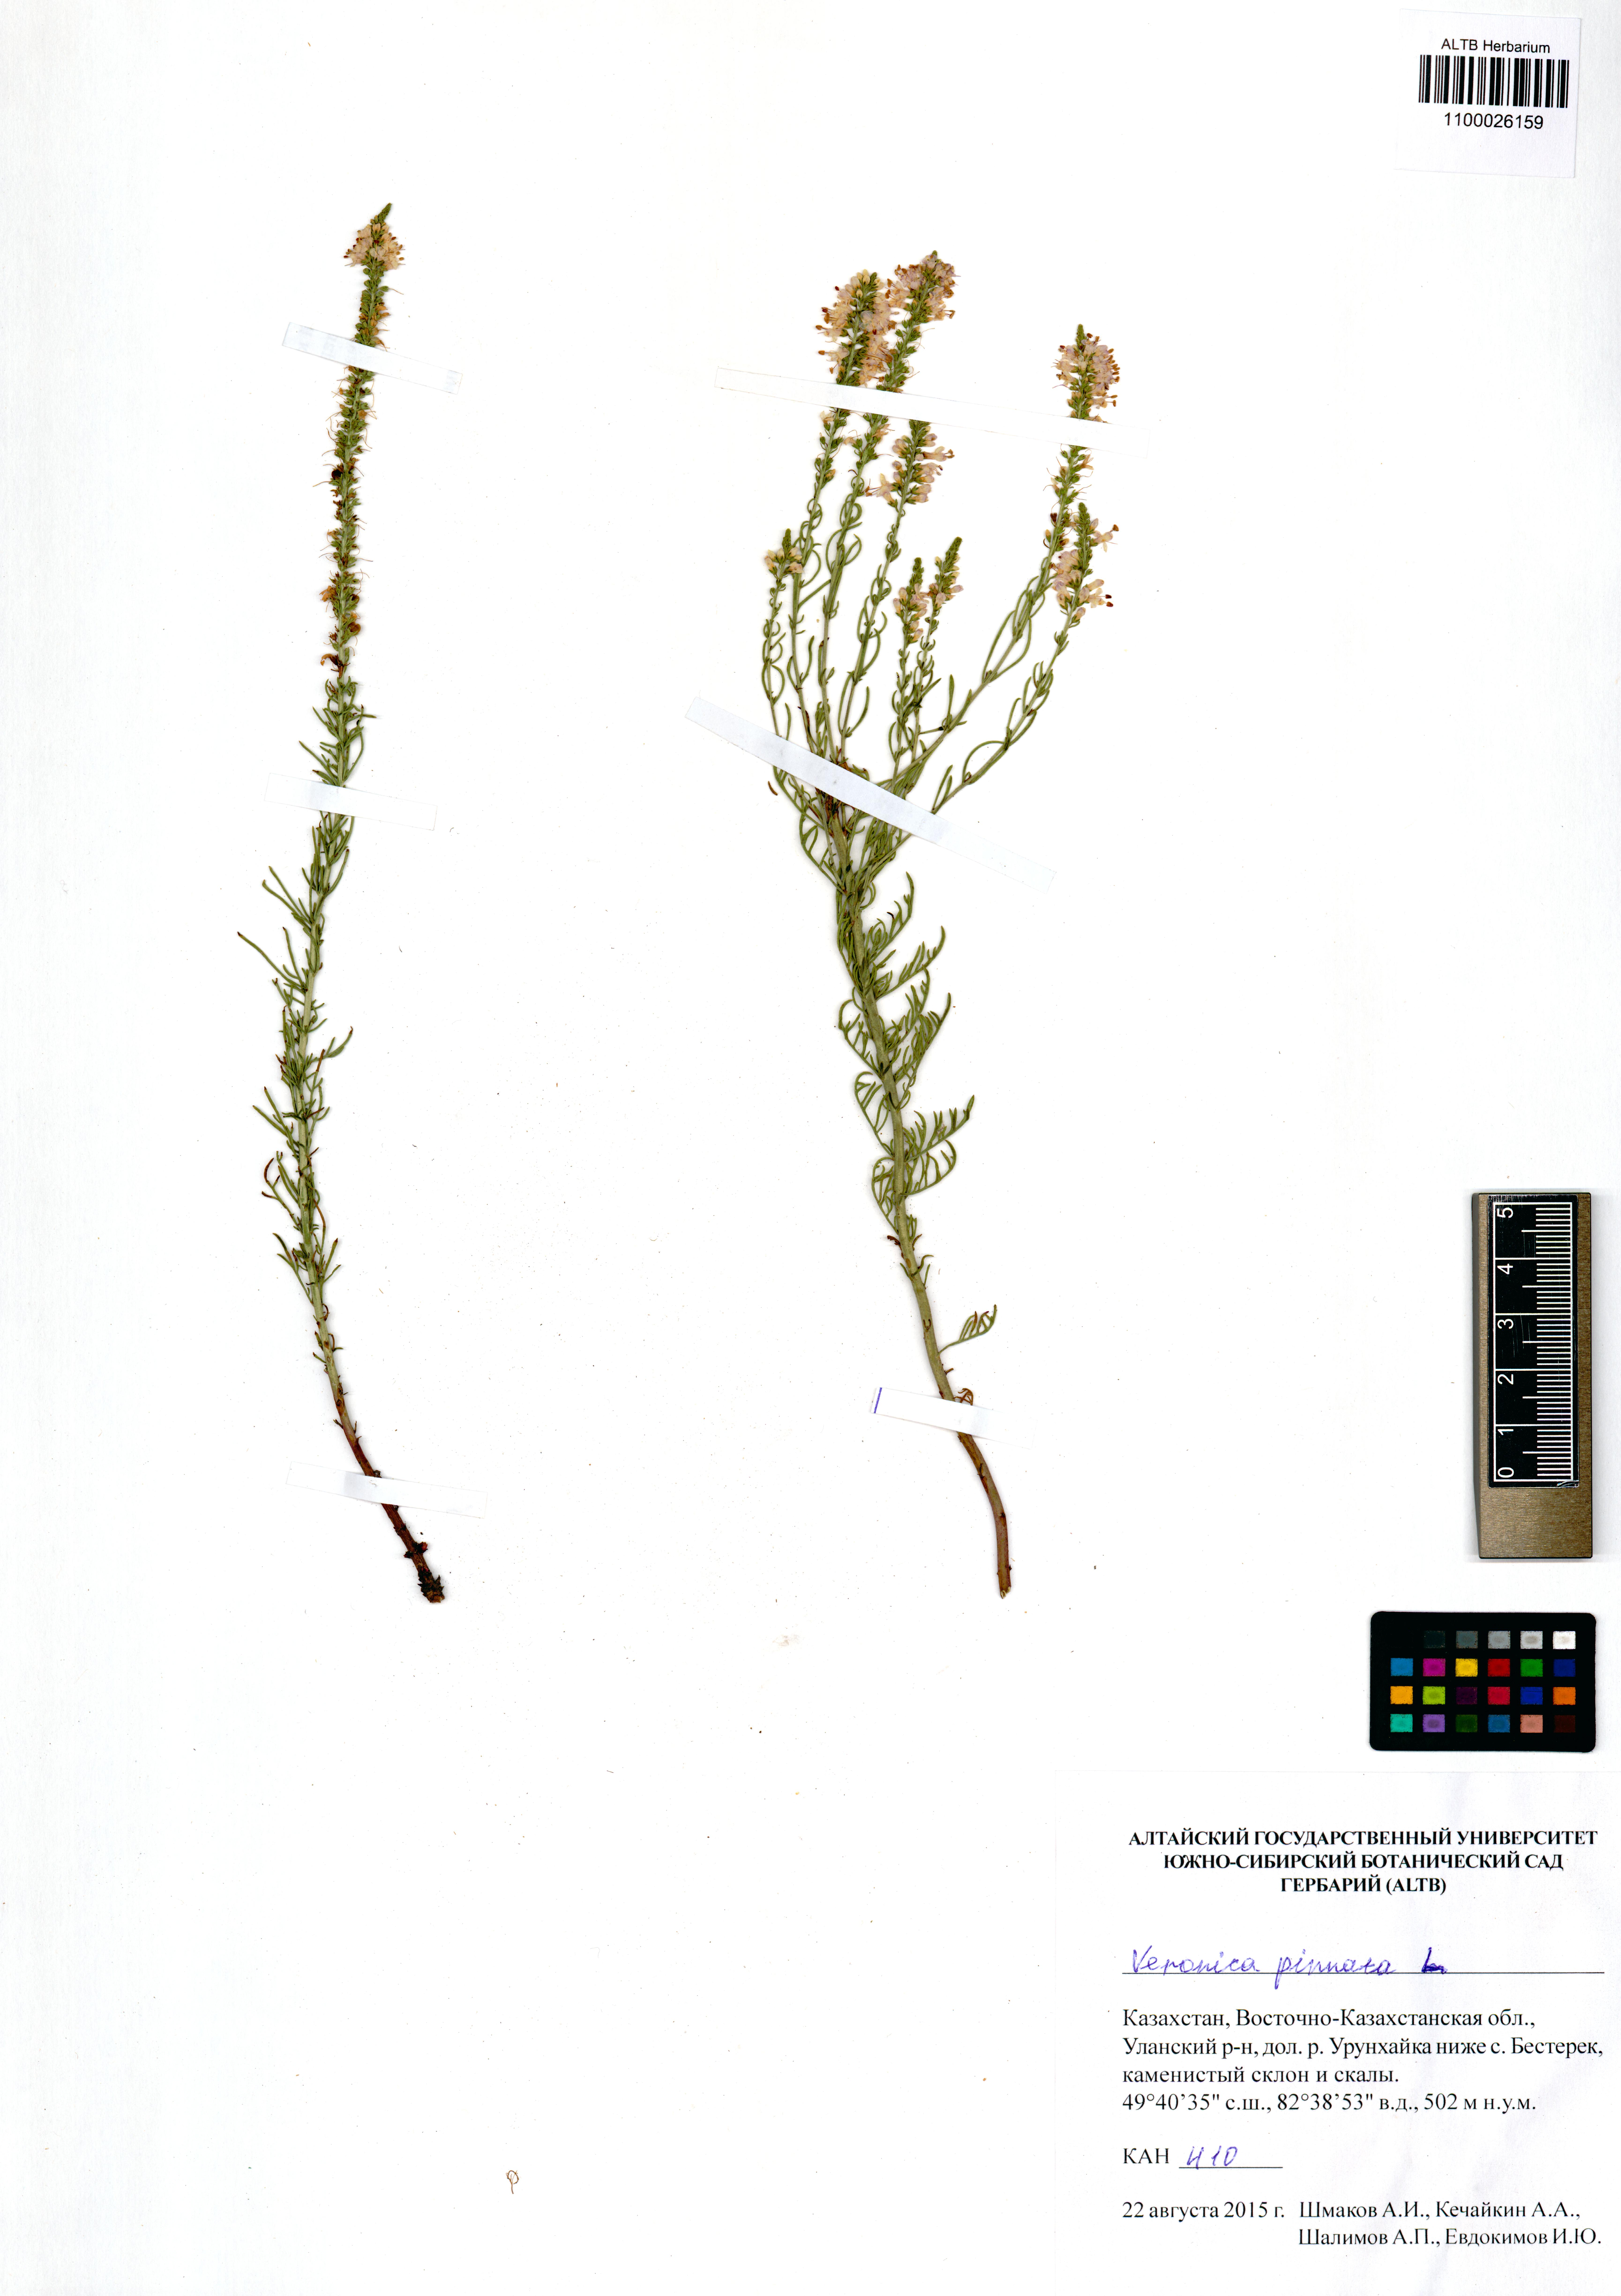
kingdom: Plantae
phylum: Tracheophyta
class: Magnoliopsida
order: Lamiales
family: Plantaginaceae
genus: Veronica
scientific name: Veronica pinnata
